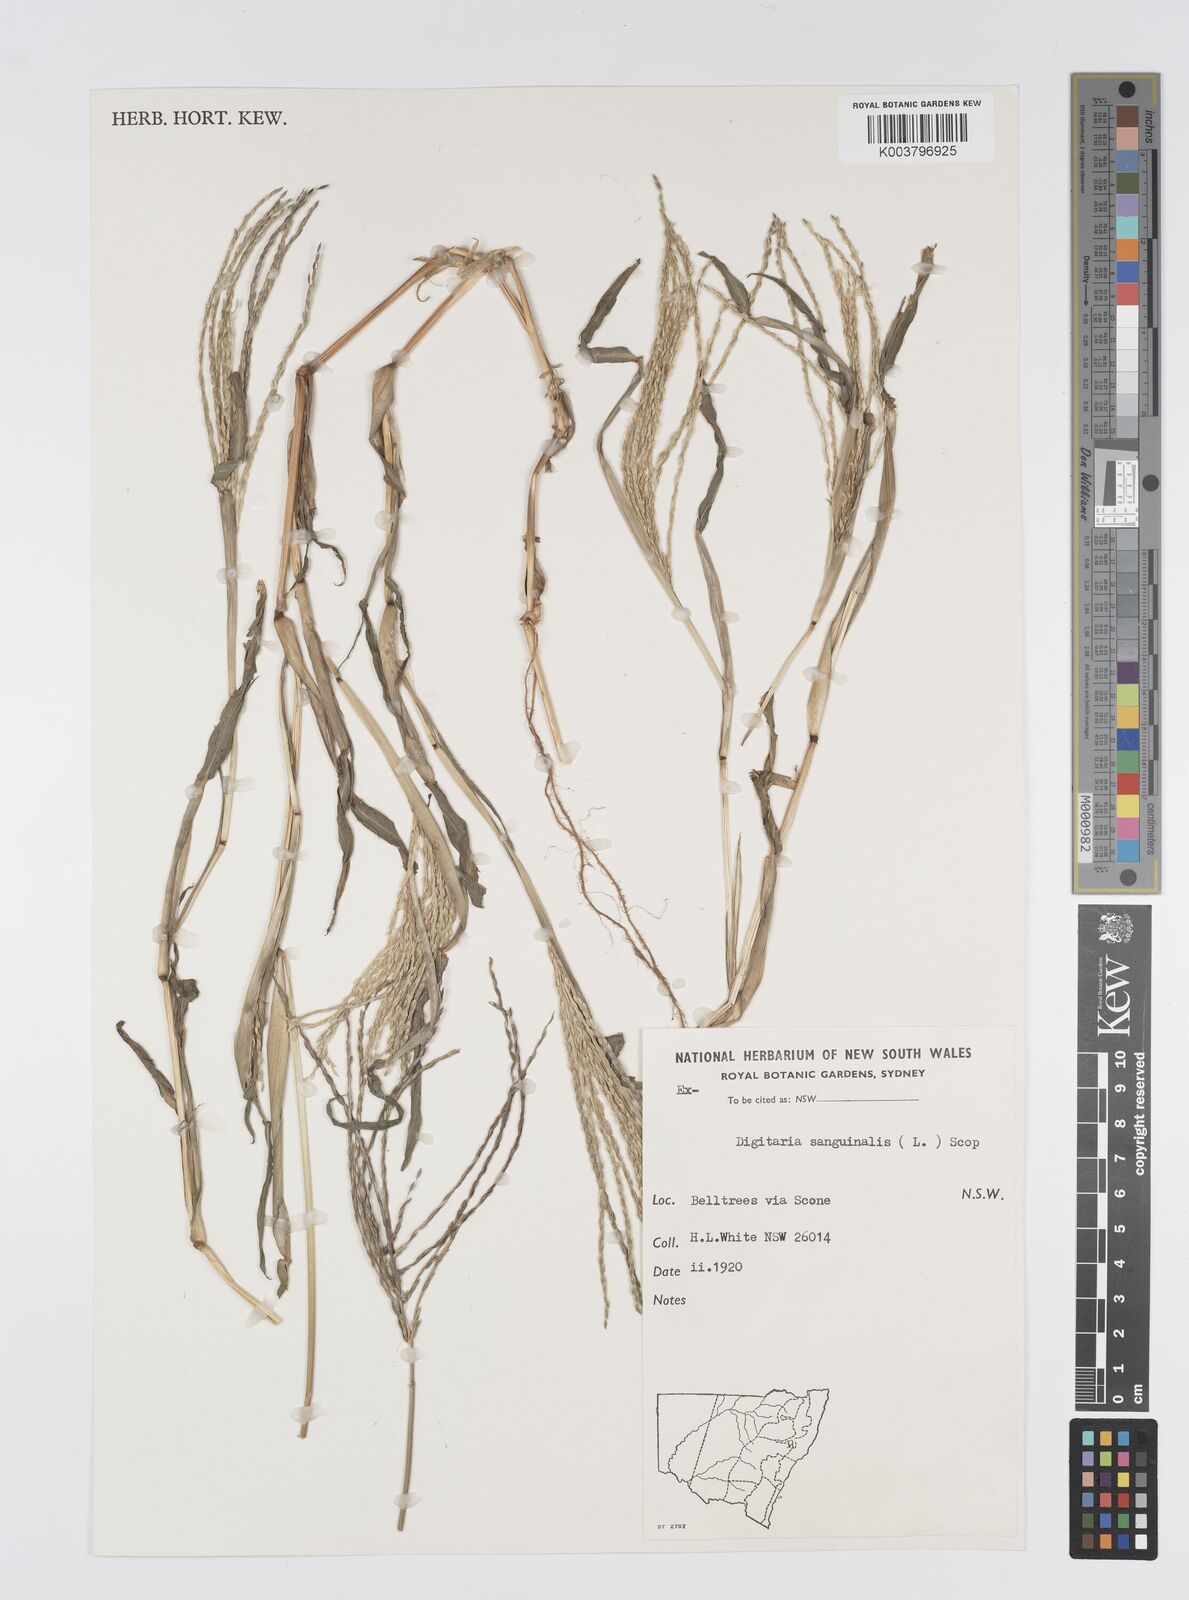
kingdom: Plantae
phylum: Tracheophyta
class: Liliopsida
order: Poales
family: Poaceae
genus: Digitaria
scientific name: Digitaria sanguinalis
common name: Hairy crabgrass
